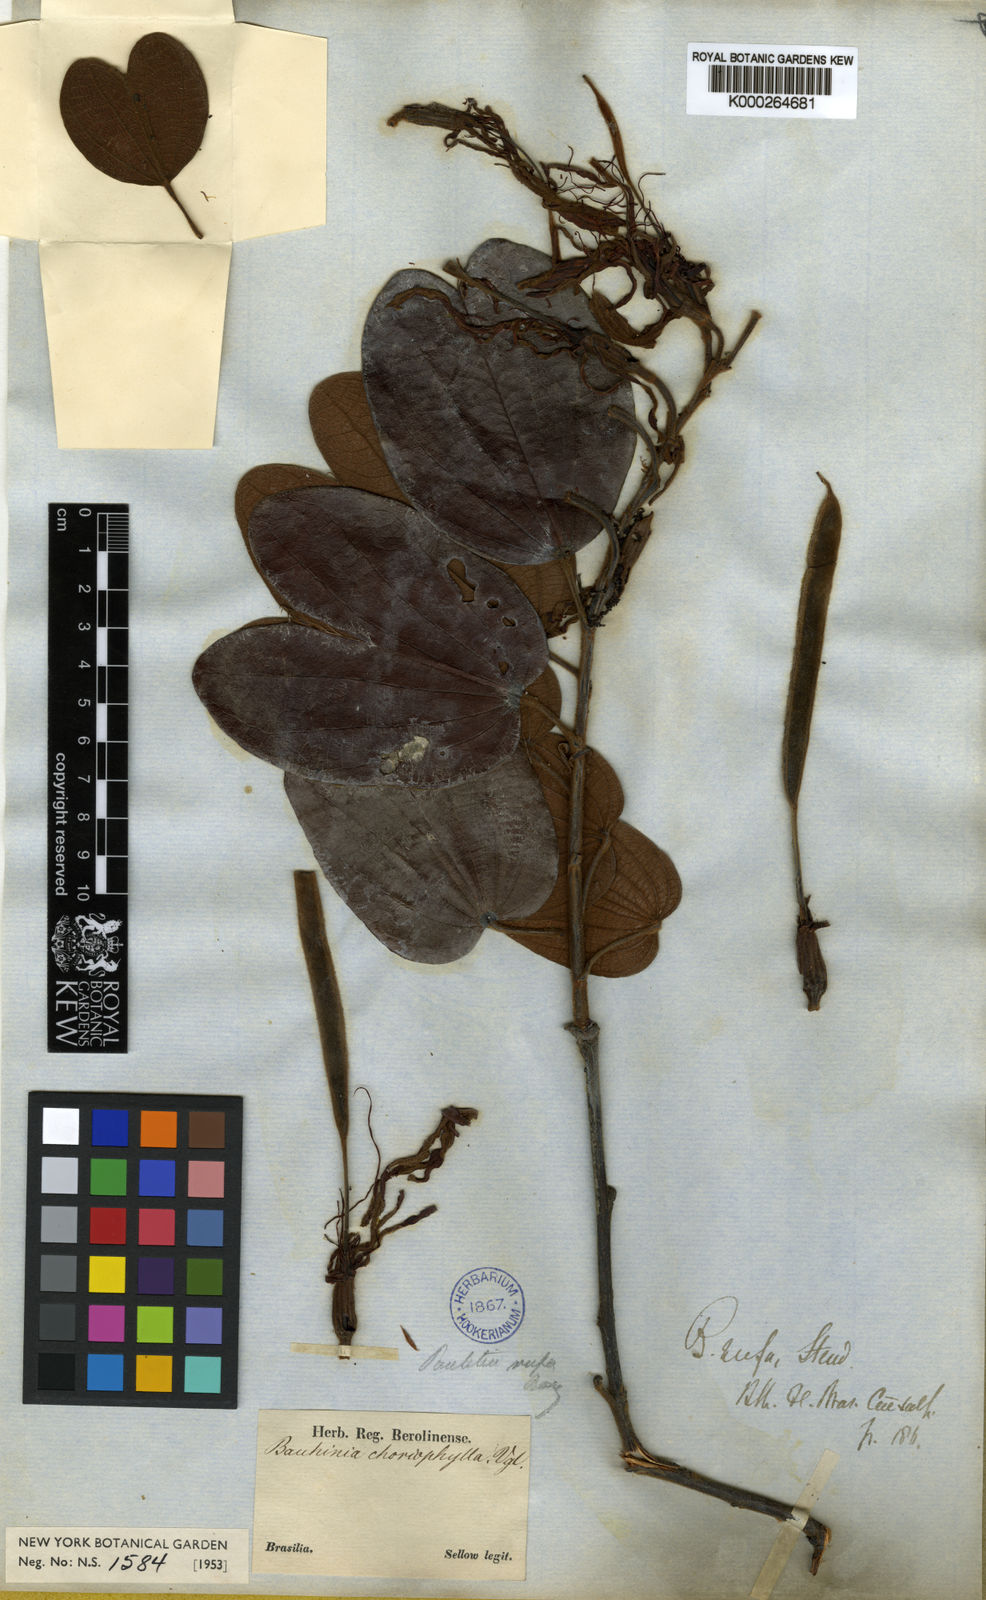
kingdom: Plantae
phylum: Tracheophyta
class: Magnoliopsida
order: Fabales
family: Fabaceae
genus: Bauhinia
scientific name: Bauhinia rufa
